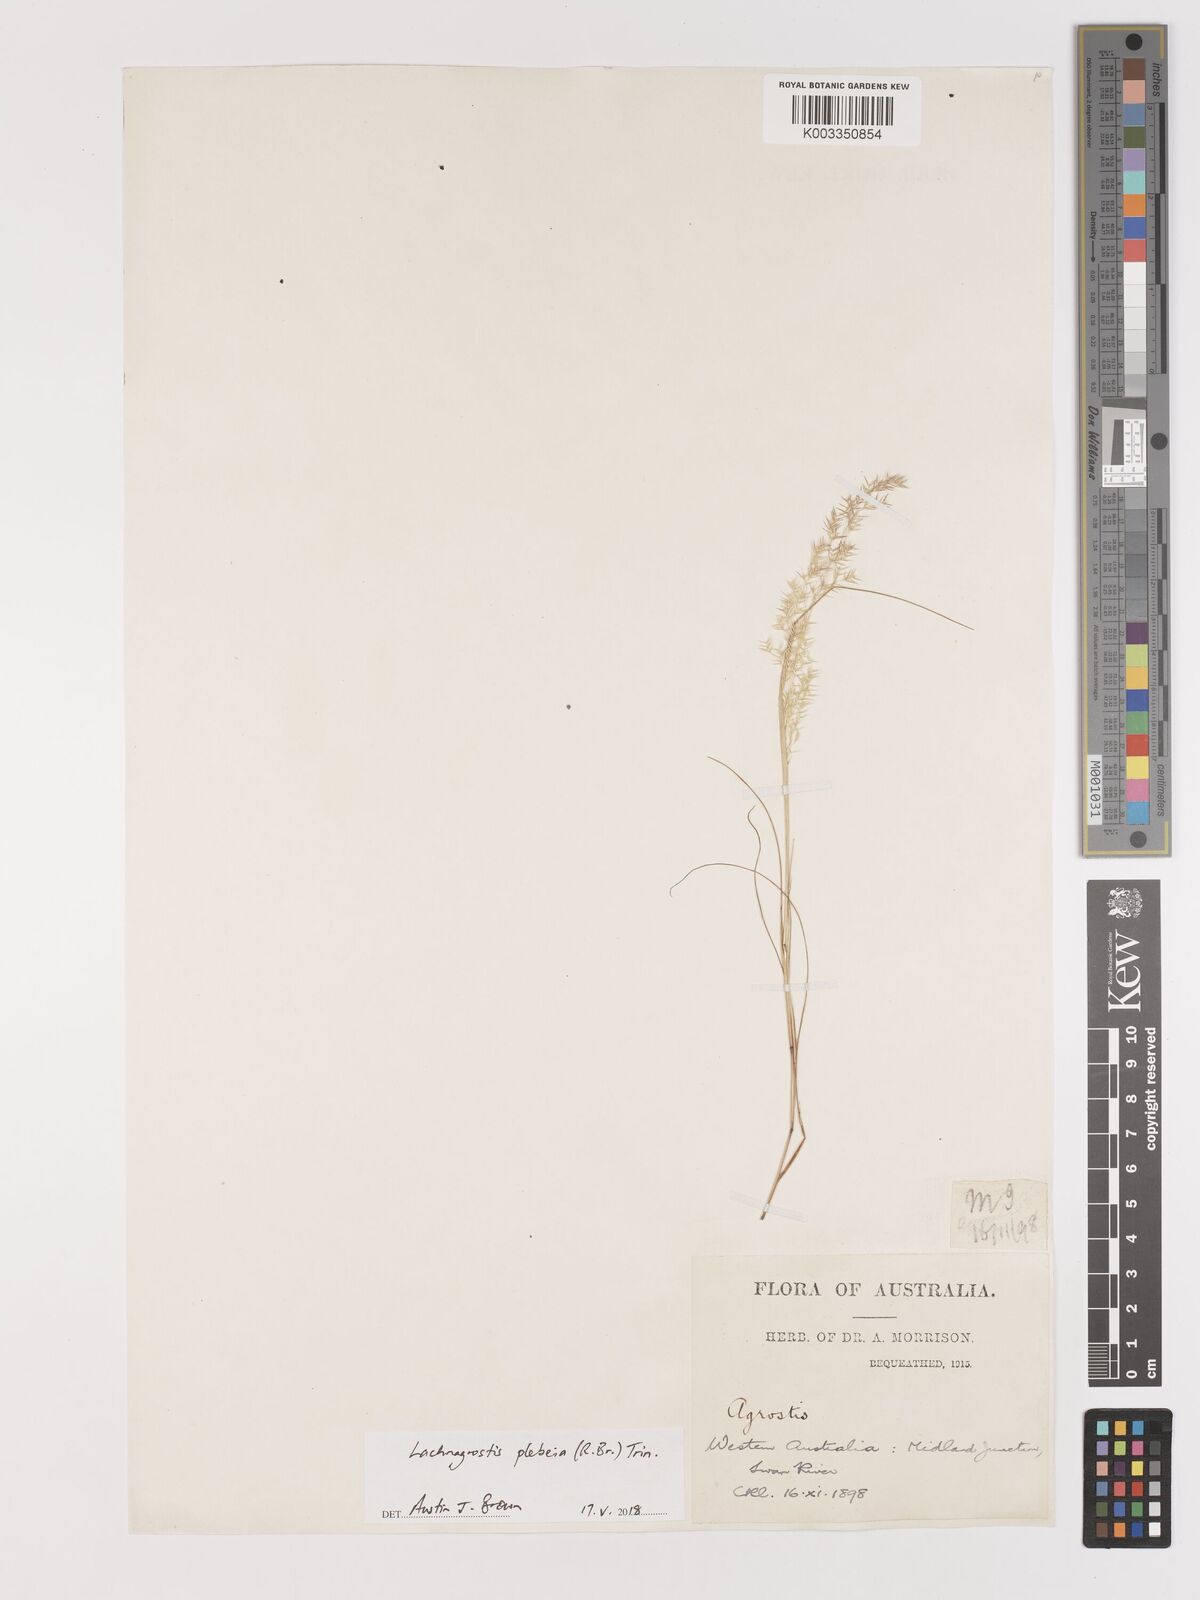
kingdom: Plantae
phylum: Tracheophyta
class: Liliopsida
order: Poales
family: Poaceae
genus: Lachnagrostis
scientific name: Lachnagrostis plebeia
